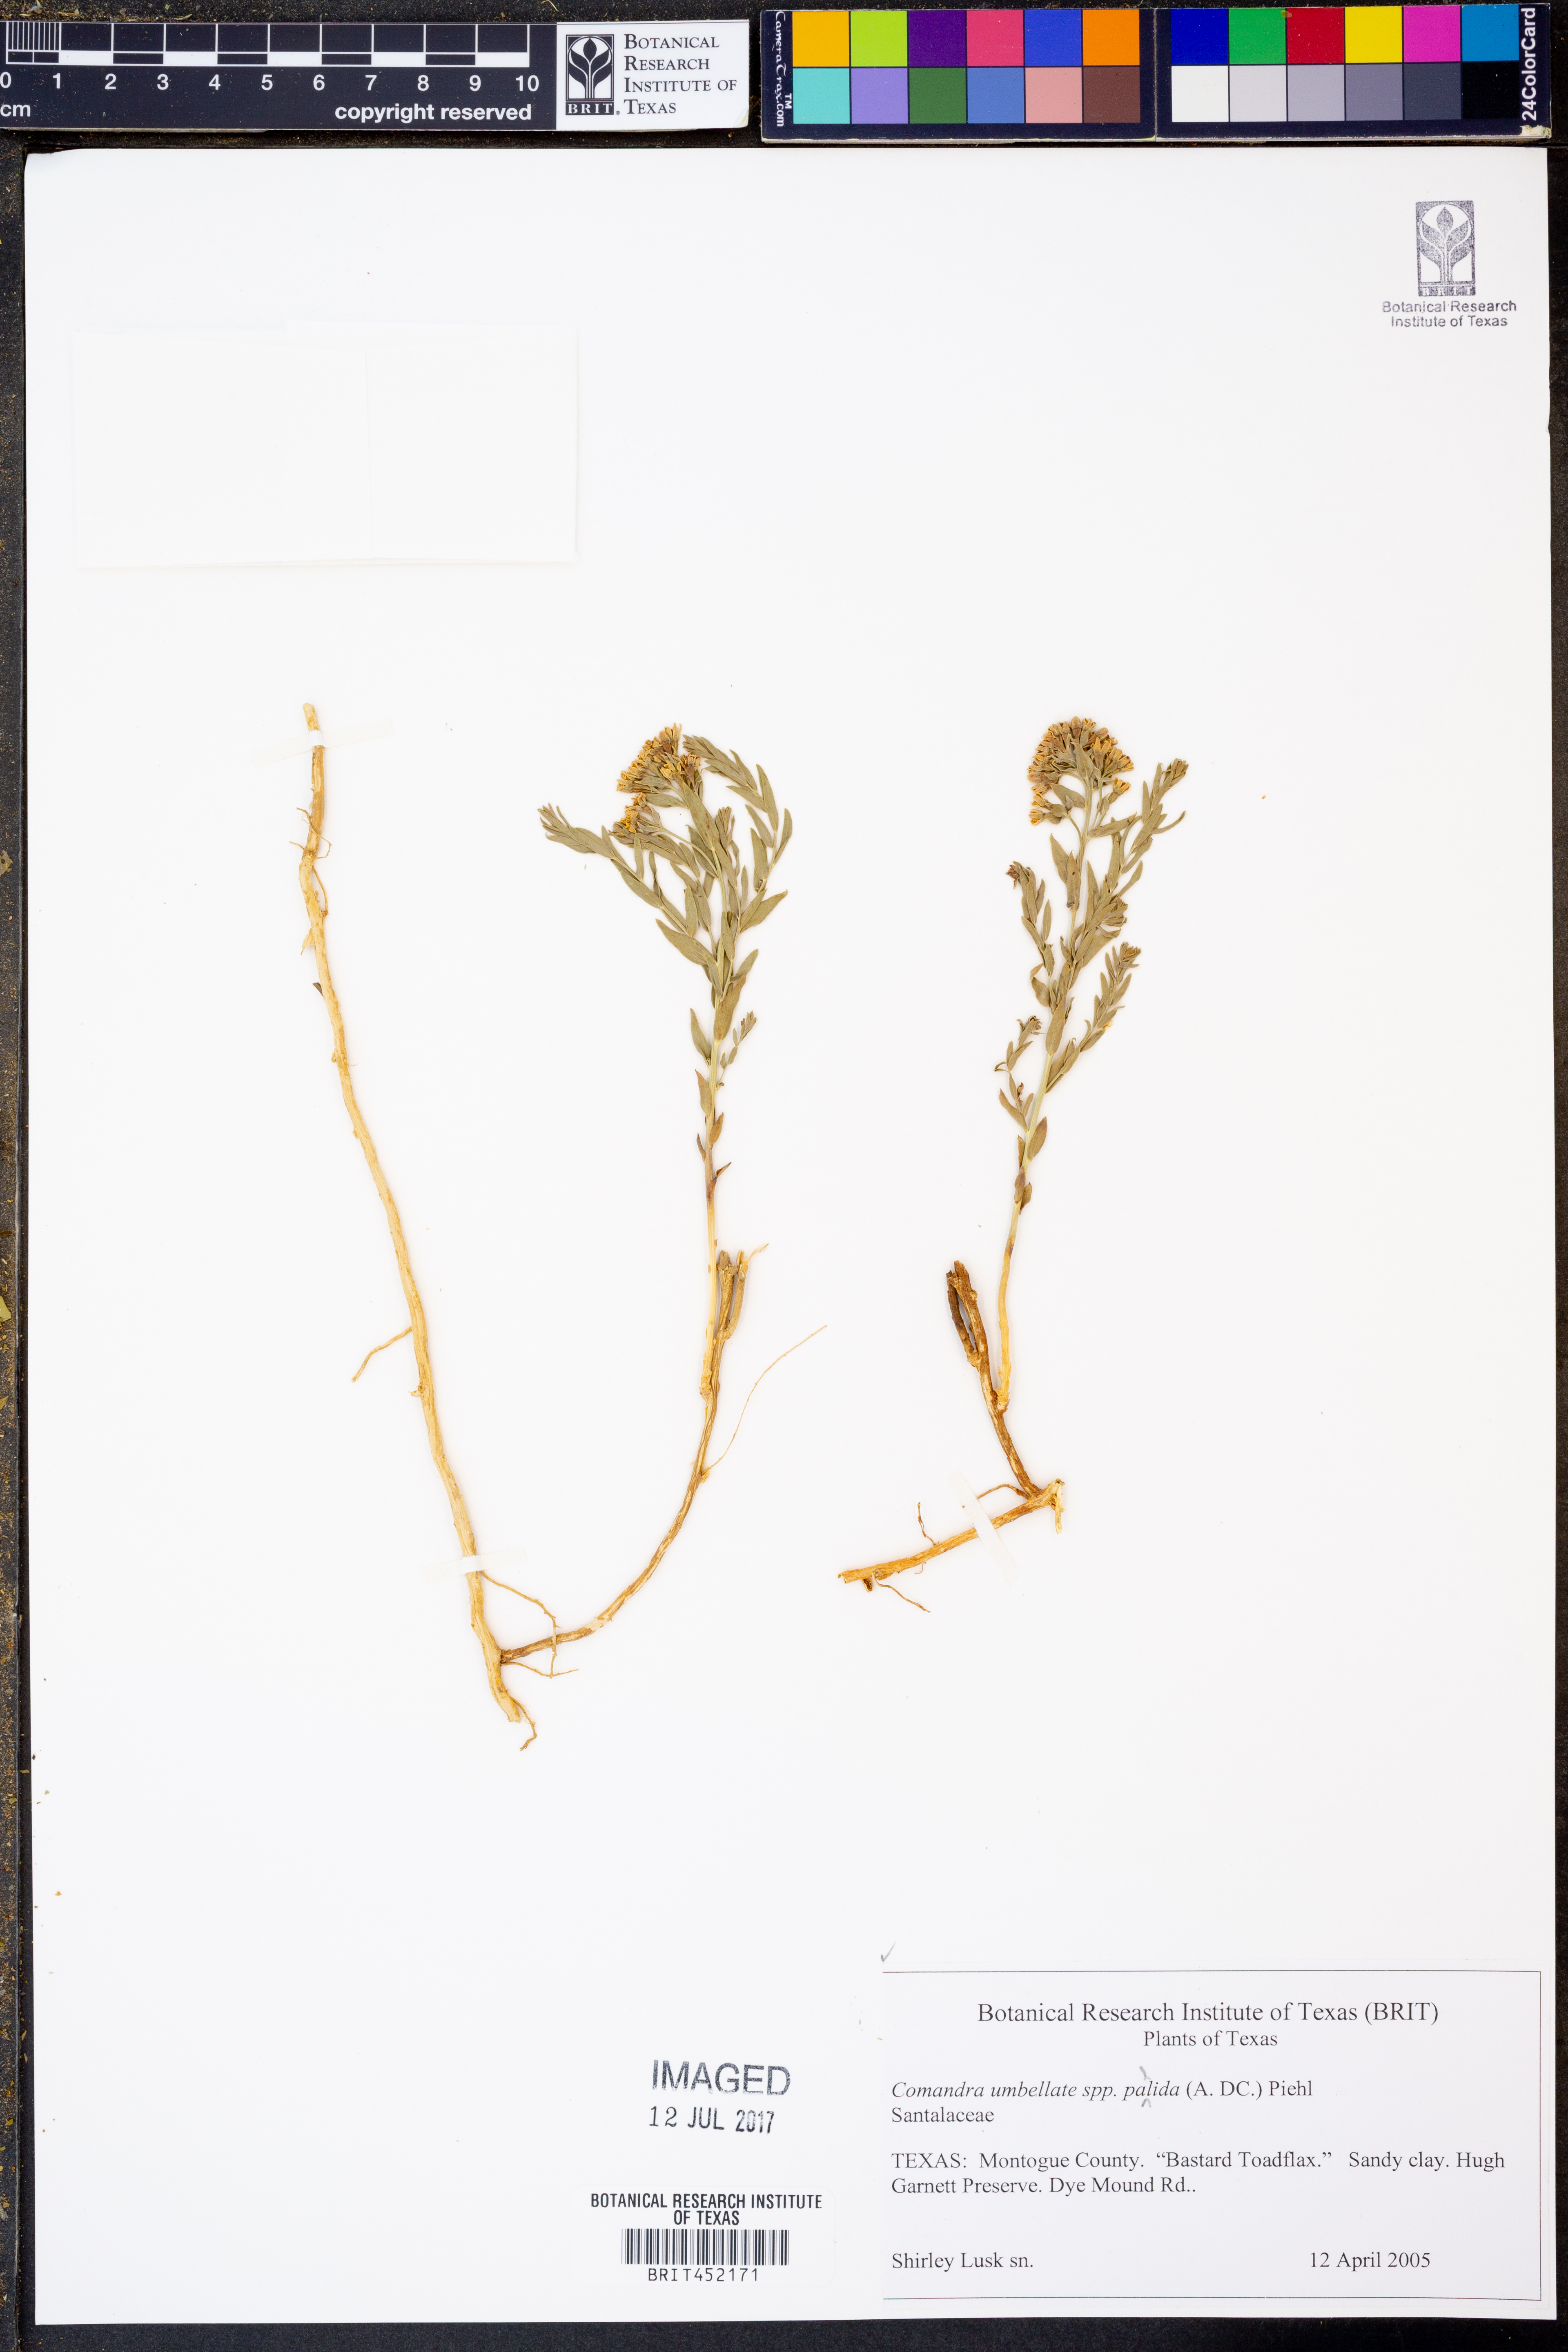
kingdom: Plantae
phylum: Tracheophyta
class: Magnoliopsida
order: Santalales
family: Comandraceae
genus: Comandra
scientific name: Comandra umbellata
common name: Bastard toadflax
